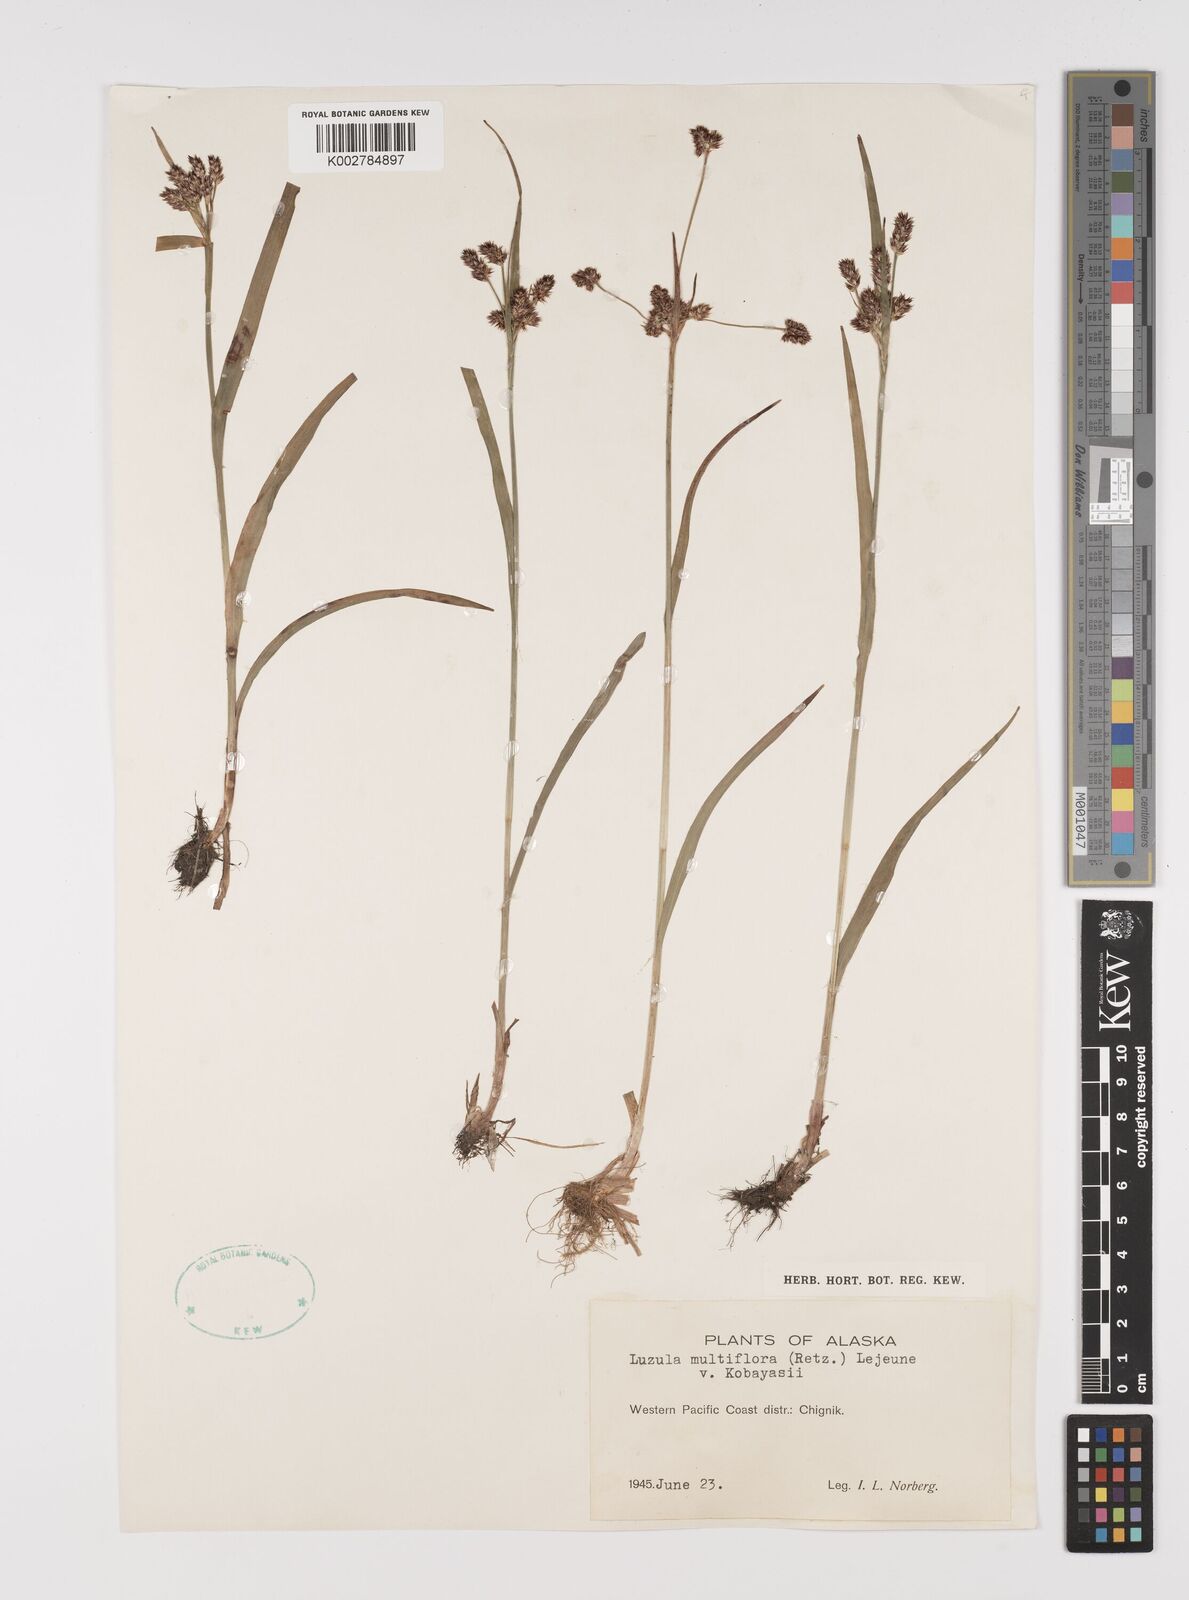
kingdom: Plantae
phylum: Tracheophyta
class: Liliopsida
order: Poales
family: Juncaceae
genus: Luzula
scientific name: Luzula kobayasii
